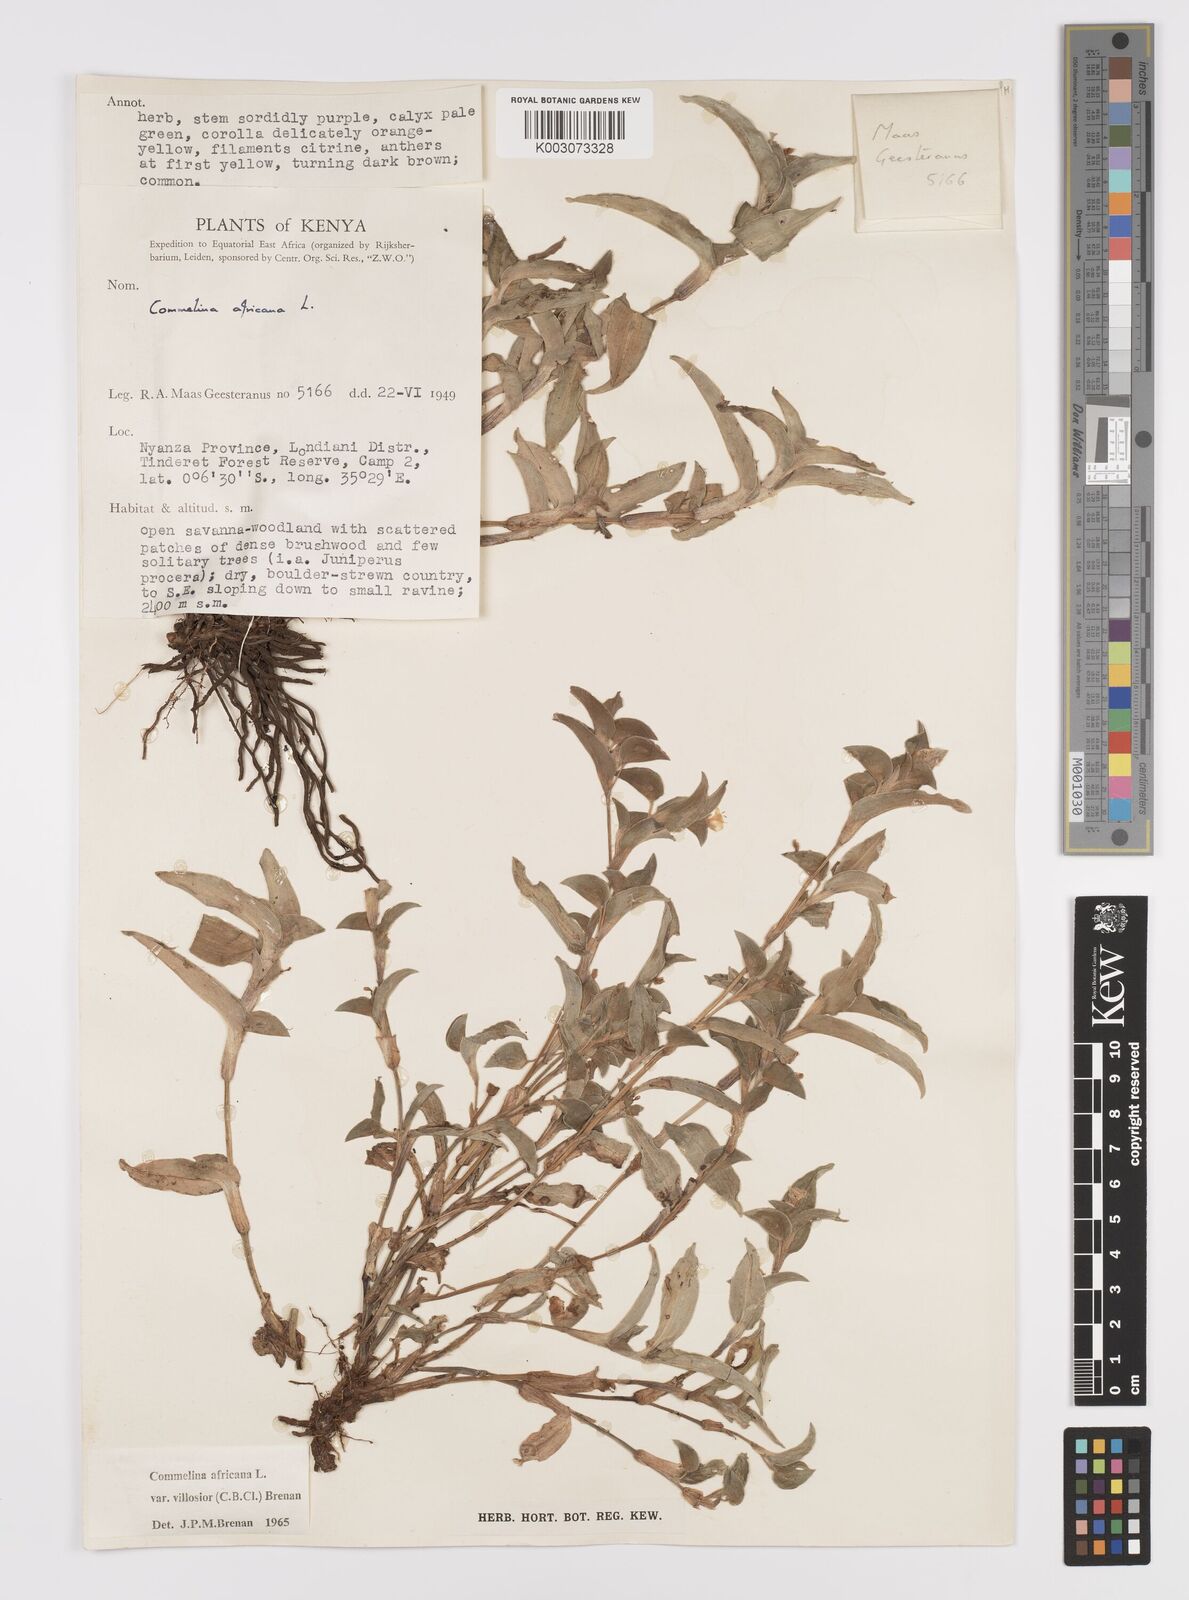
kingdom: Plantae
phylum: Tracheophyta
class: Liliopsida
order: Commelinales
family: Commelinaceae
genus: Commelina
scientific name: Commelina africana
